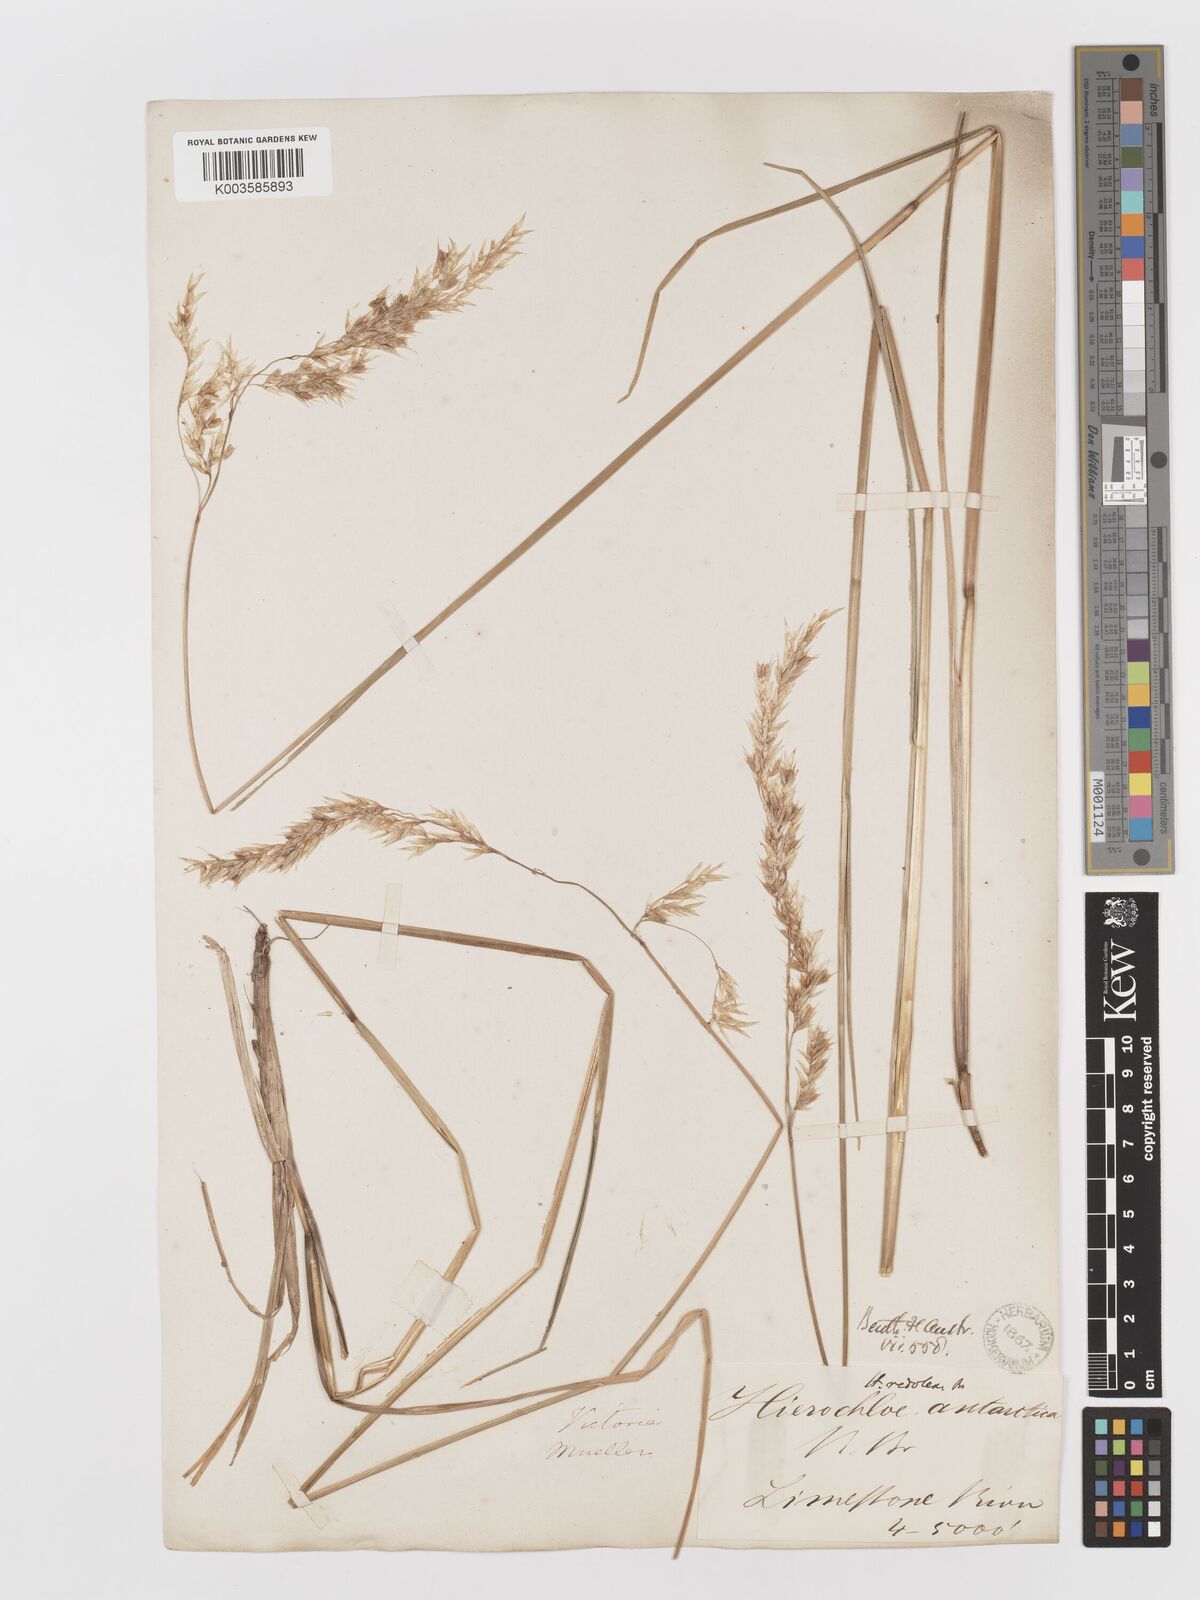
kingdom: Plantae
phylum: Tracheophyta
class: Liliopsida
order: Poales
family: Poaceae
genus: Anthoxanthum
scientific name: Anthoxanthum redolens
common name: Sweet holy grass
